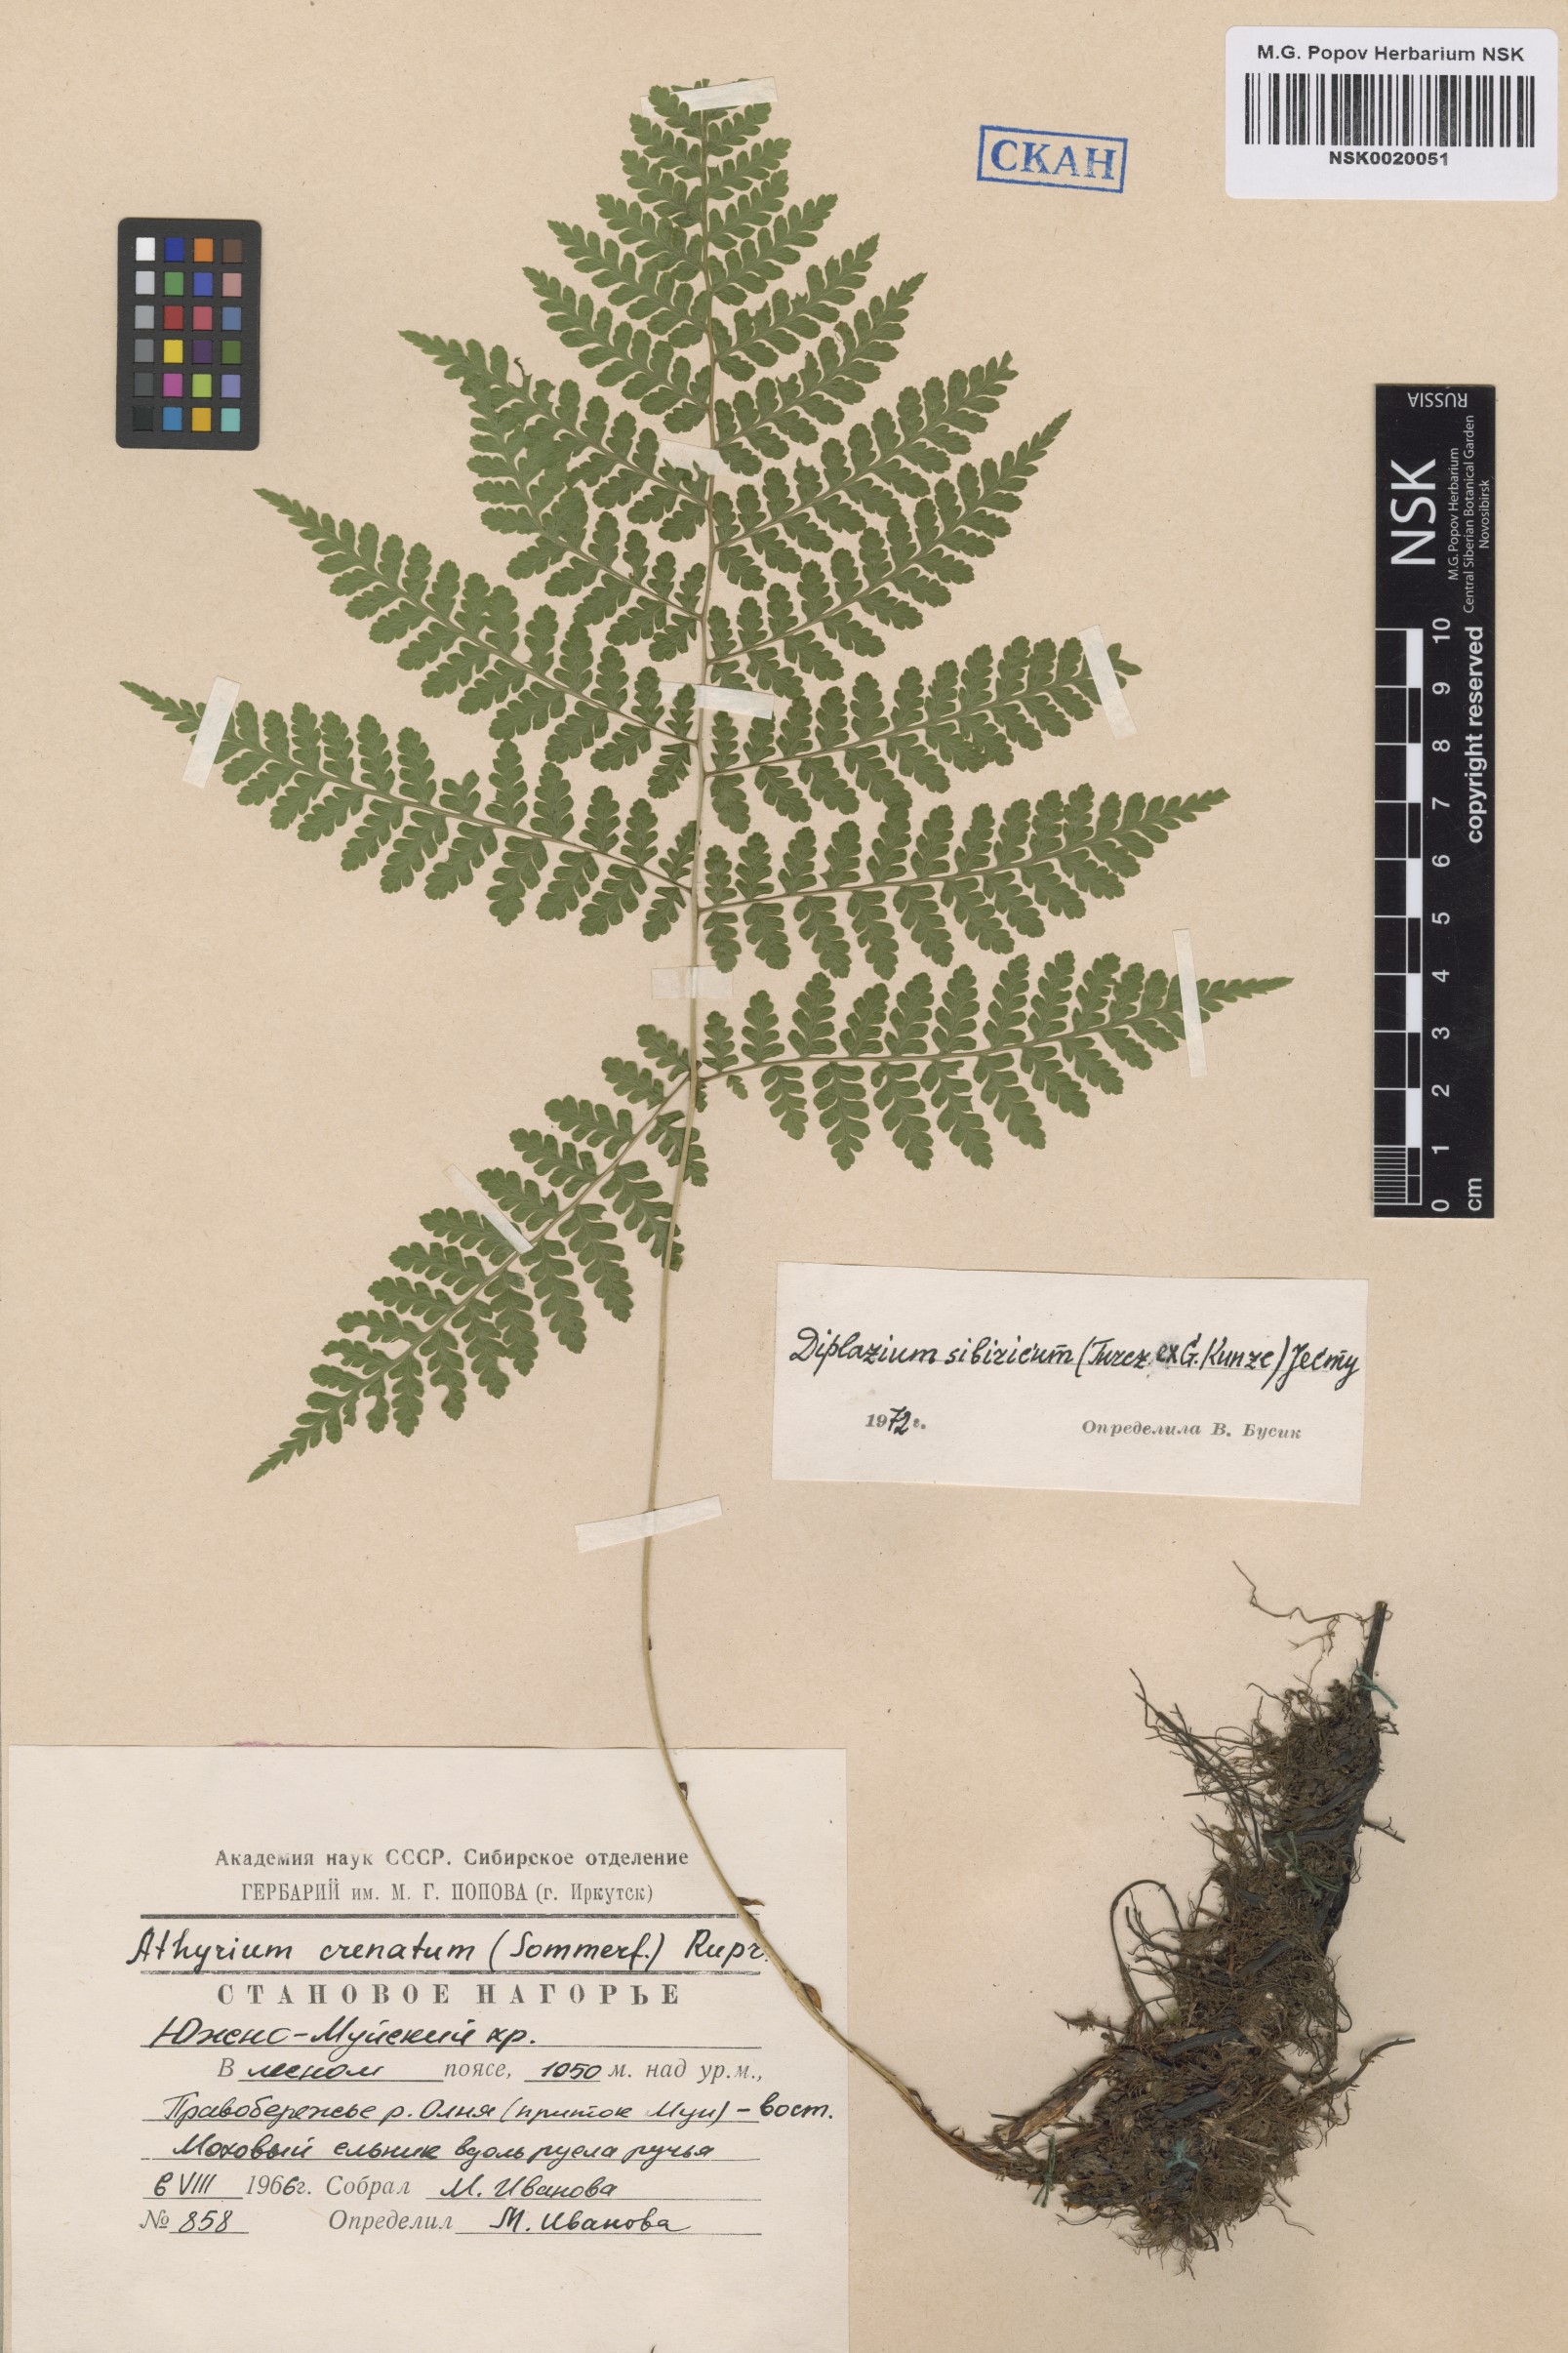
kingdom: Plantae
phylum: Tracheophyta
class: Polypodiopsida
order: Polypodiales
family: Athyriaceae
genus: Diplazium
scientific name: Diplazium sibiricum
